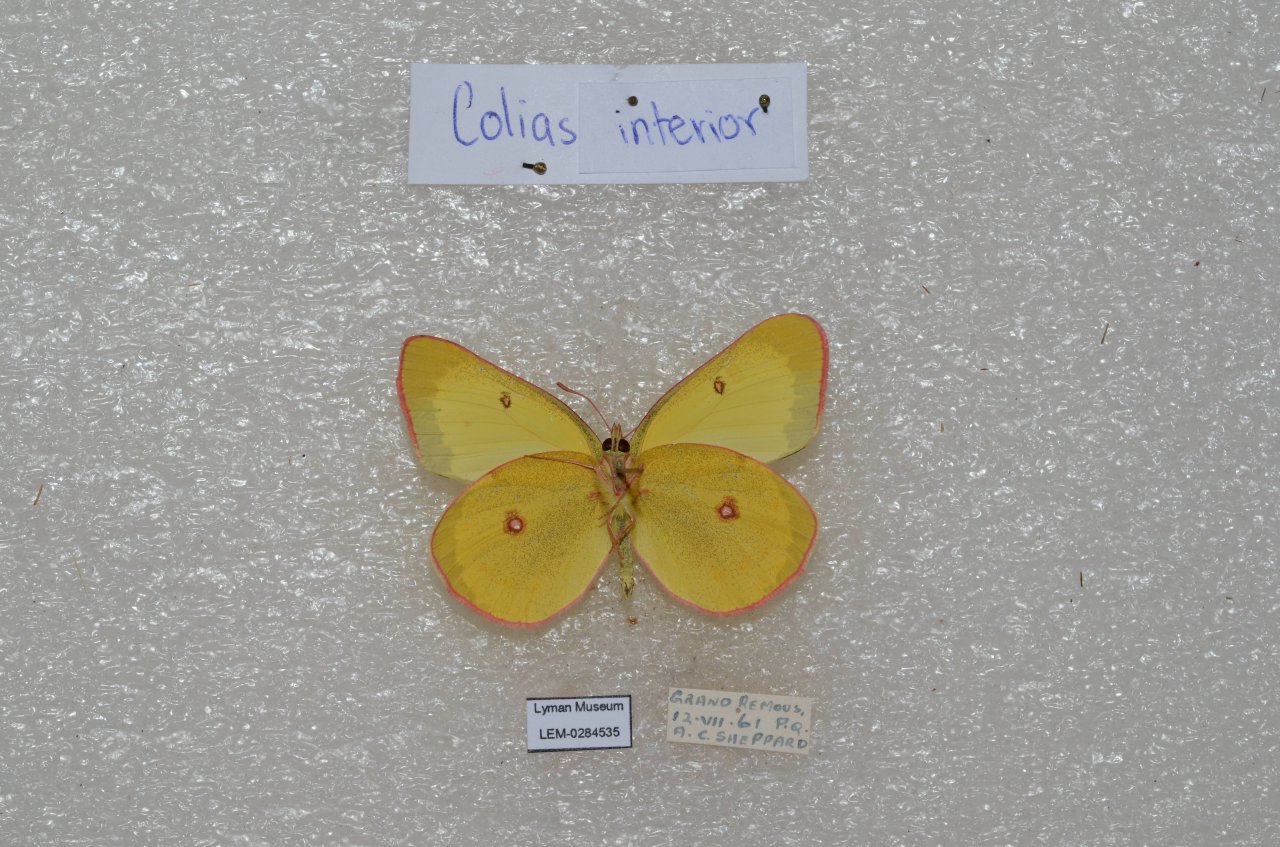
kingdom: Animalia
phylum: Arthropoda
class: Insecta
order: Lepidoptera
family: Pieridae
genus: Colias
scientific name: Colias interior
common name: Pink-edged Sulphur
